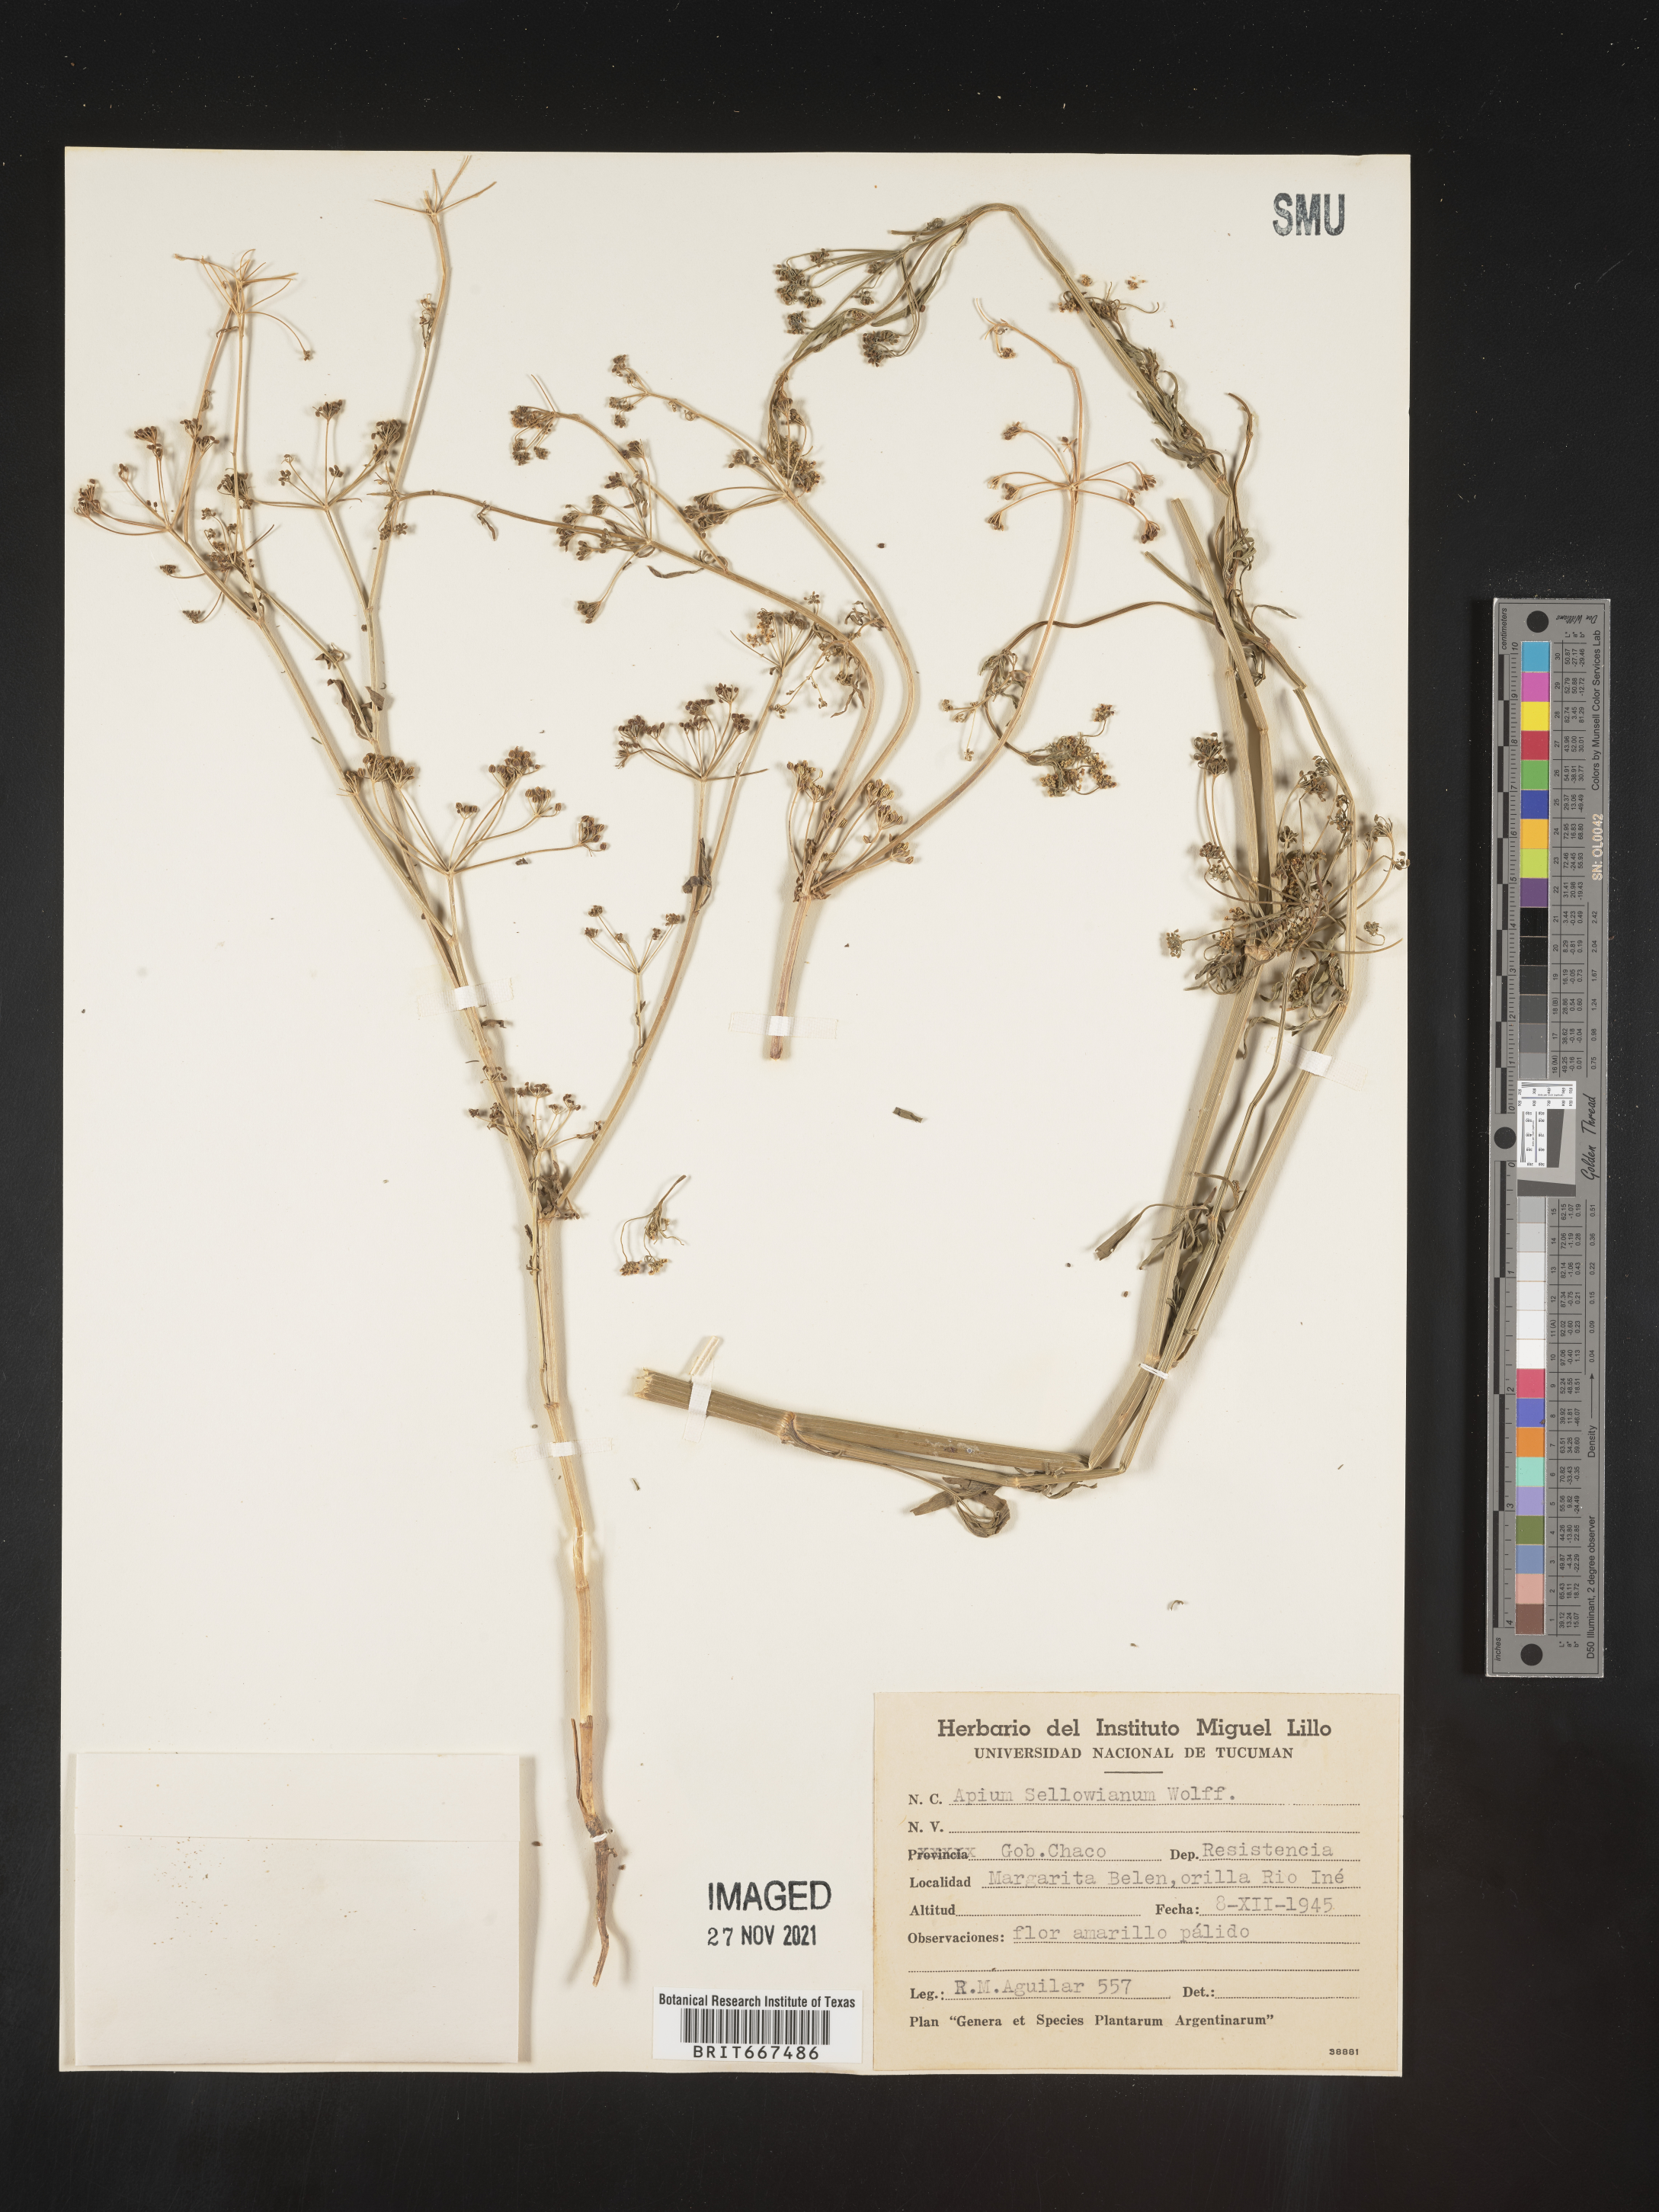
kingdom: Plantae
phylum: Tracheophyta
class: Magnoliopsida
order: Apiales
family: Apiaceae
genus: Apium
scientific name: Apium
